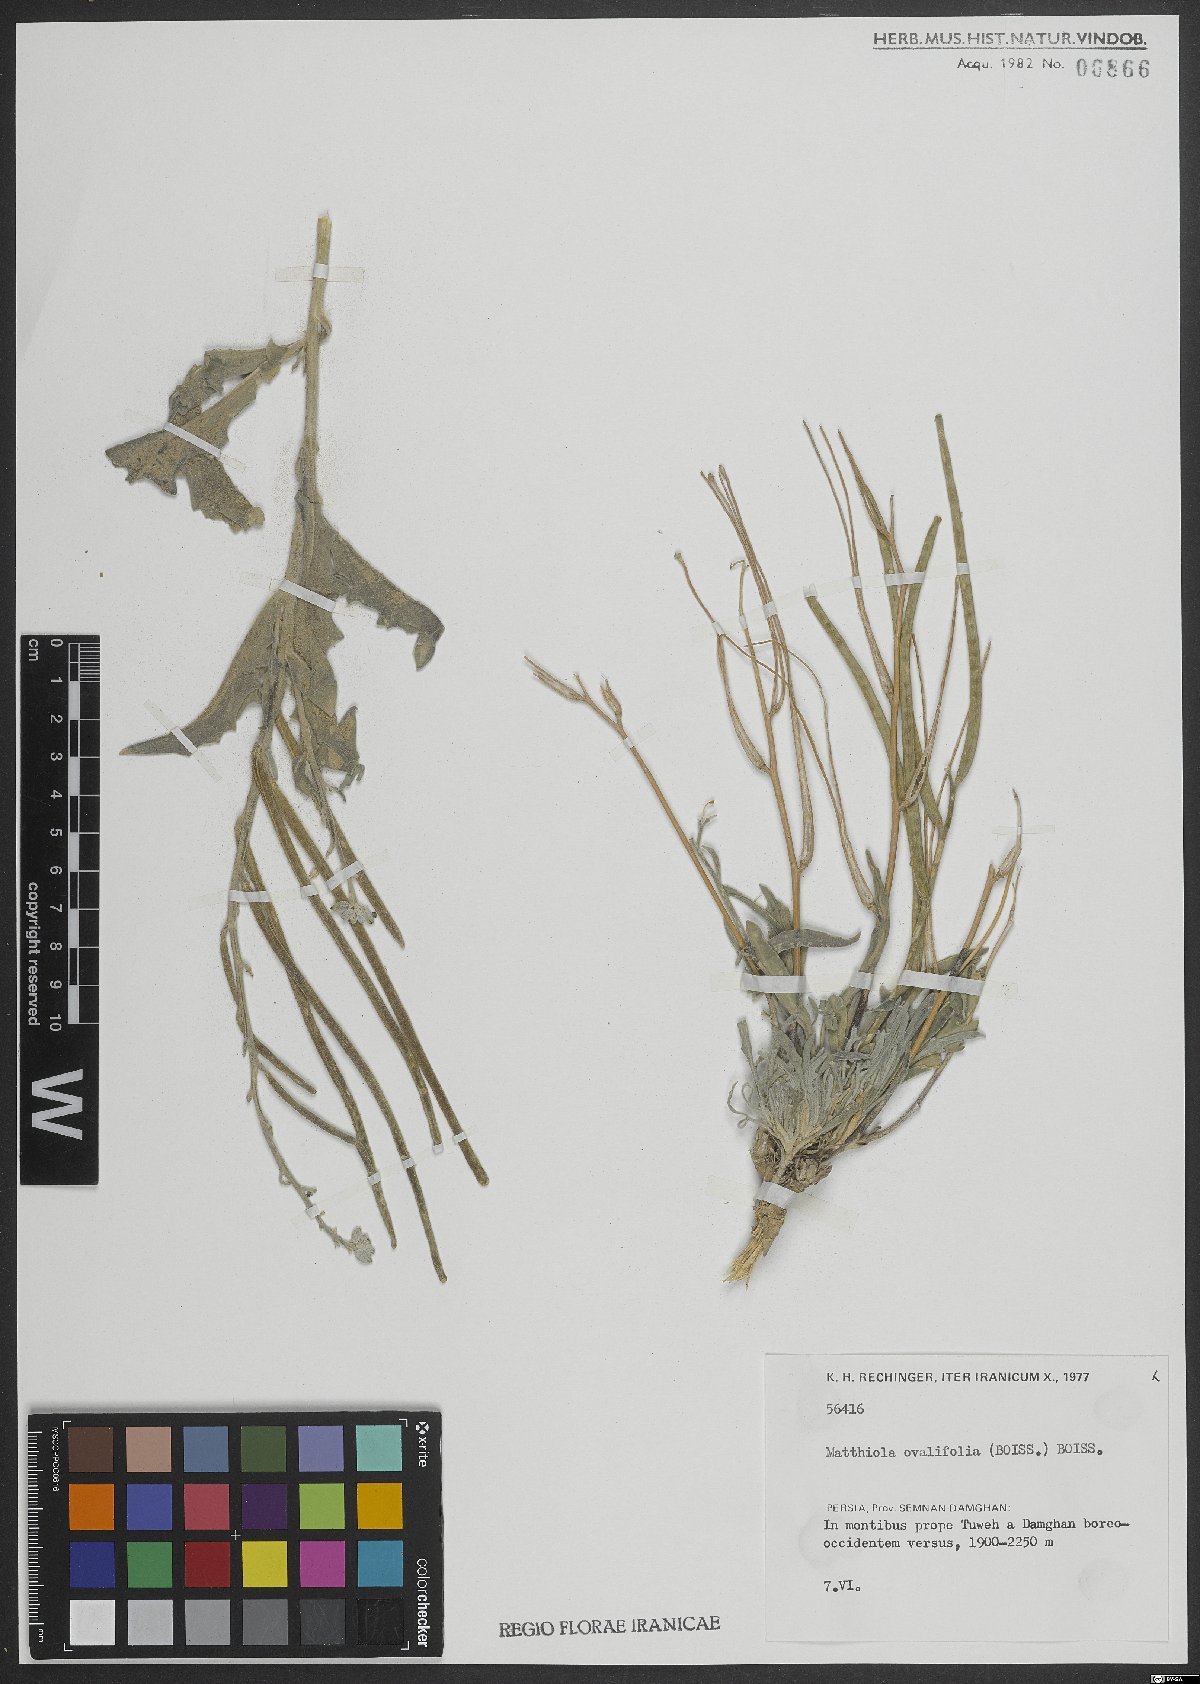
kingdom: Plantae
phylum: Tracheophyta
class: Magnoliopsida
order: Brassicales
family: Brassicaceae
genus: Matthiola
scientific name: Matthiola ovatifolia
